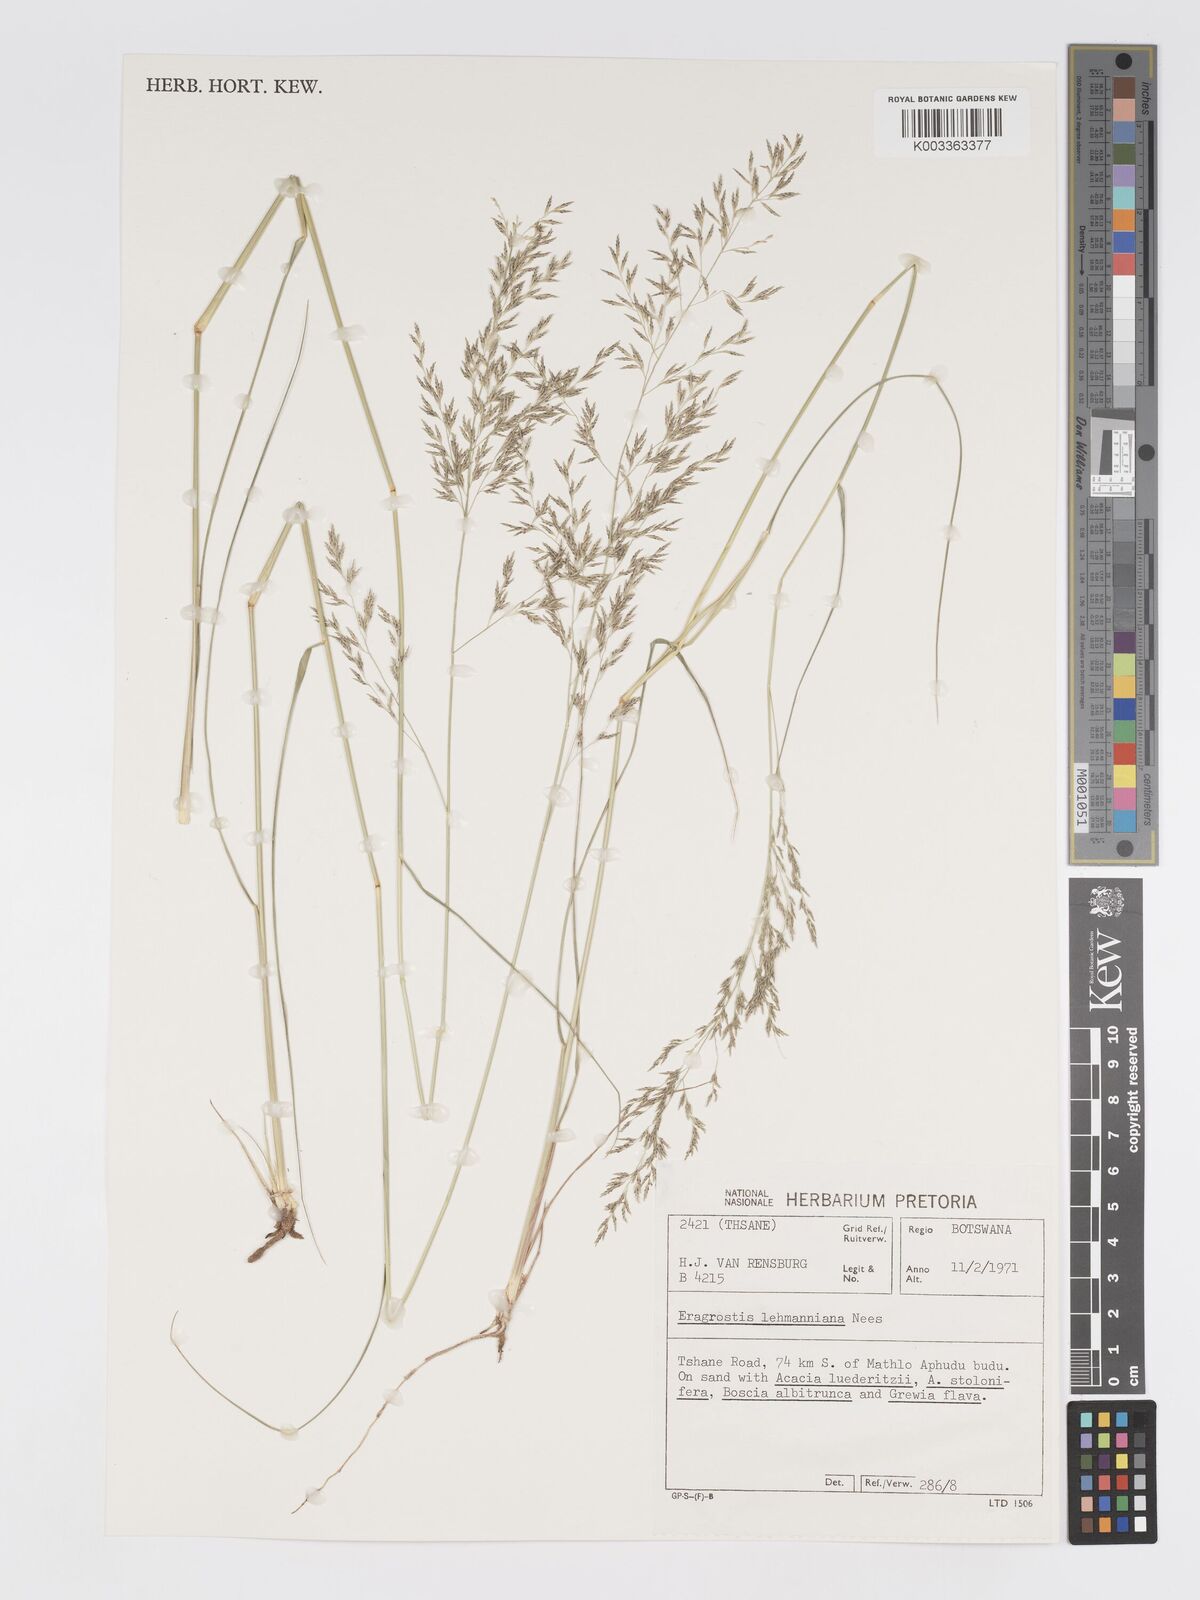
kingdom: Plantae
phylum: Tracheophyta
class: Liliopsida
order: Poales
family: Poaceae
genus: Eragrostis
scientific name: Eragrostis lehmanniana
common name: Lehmann lovegrass
